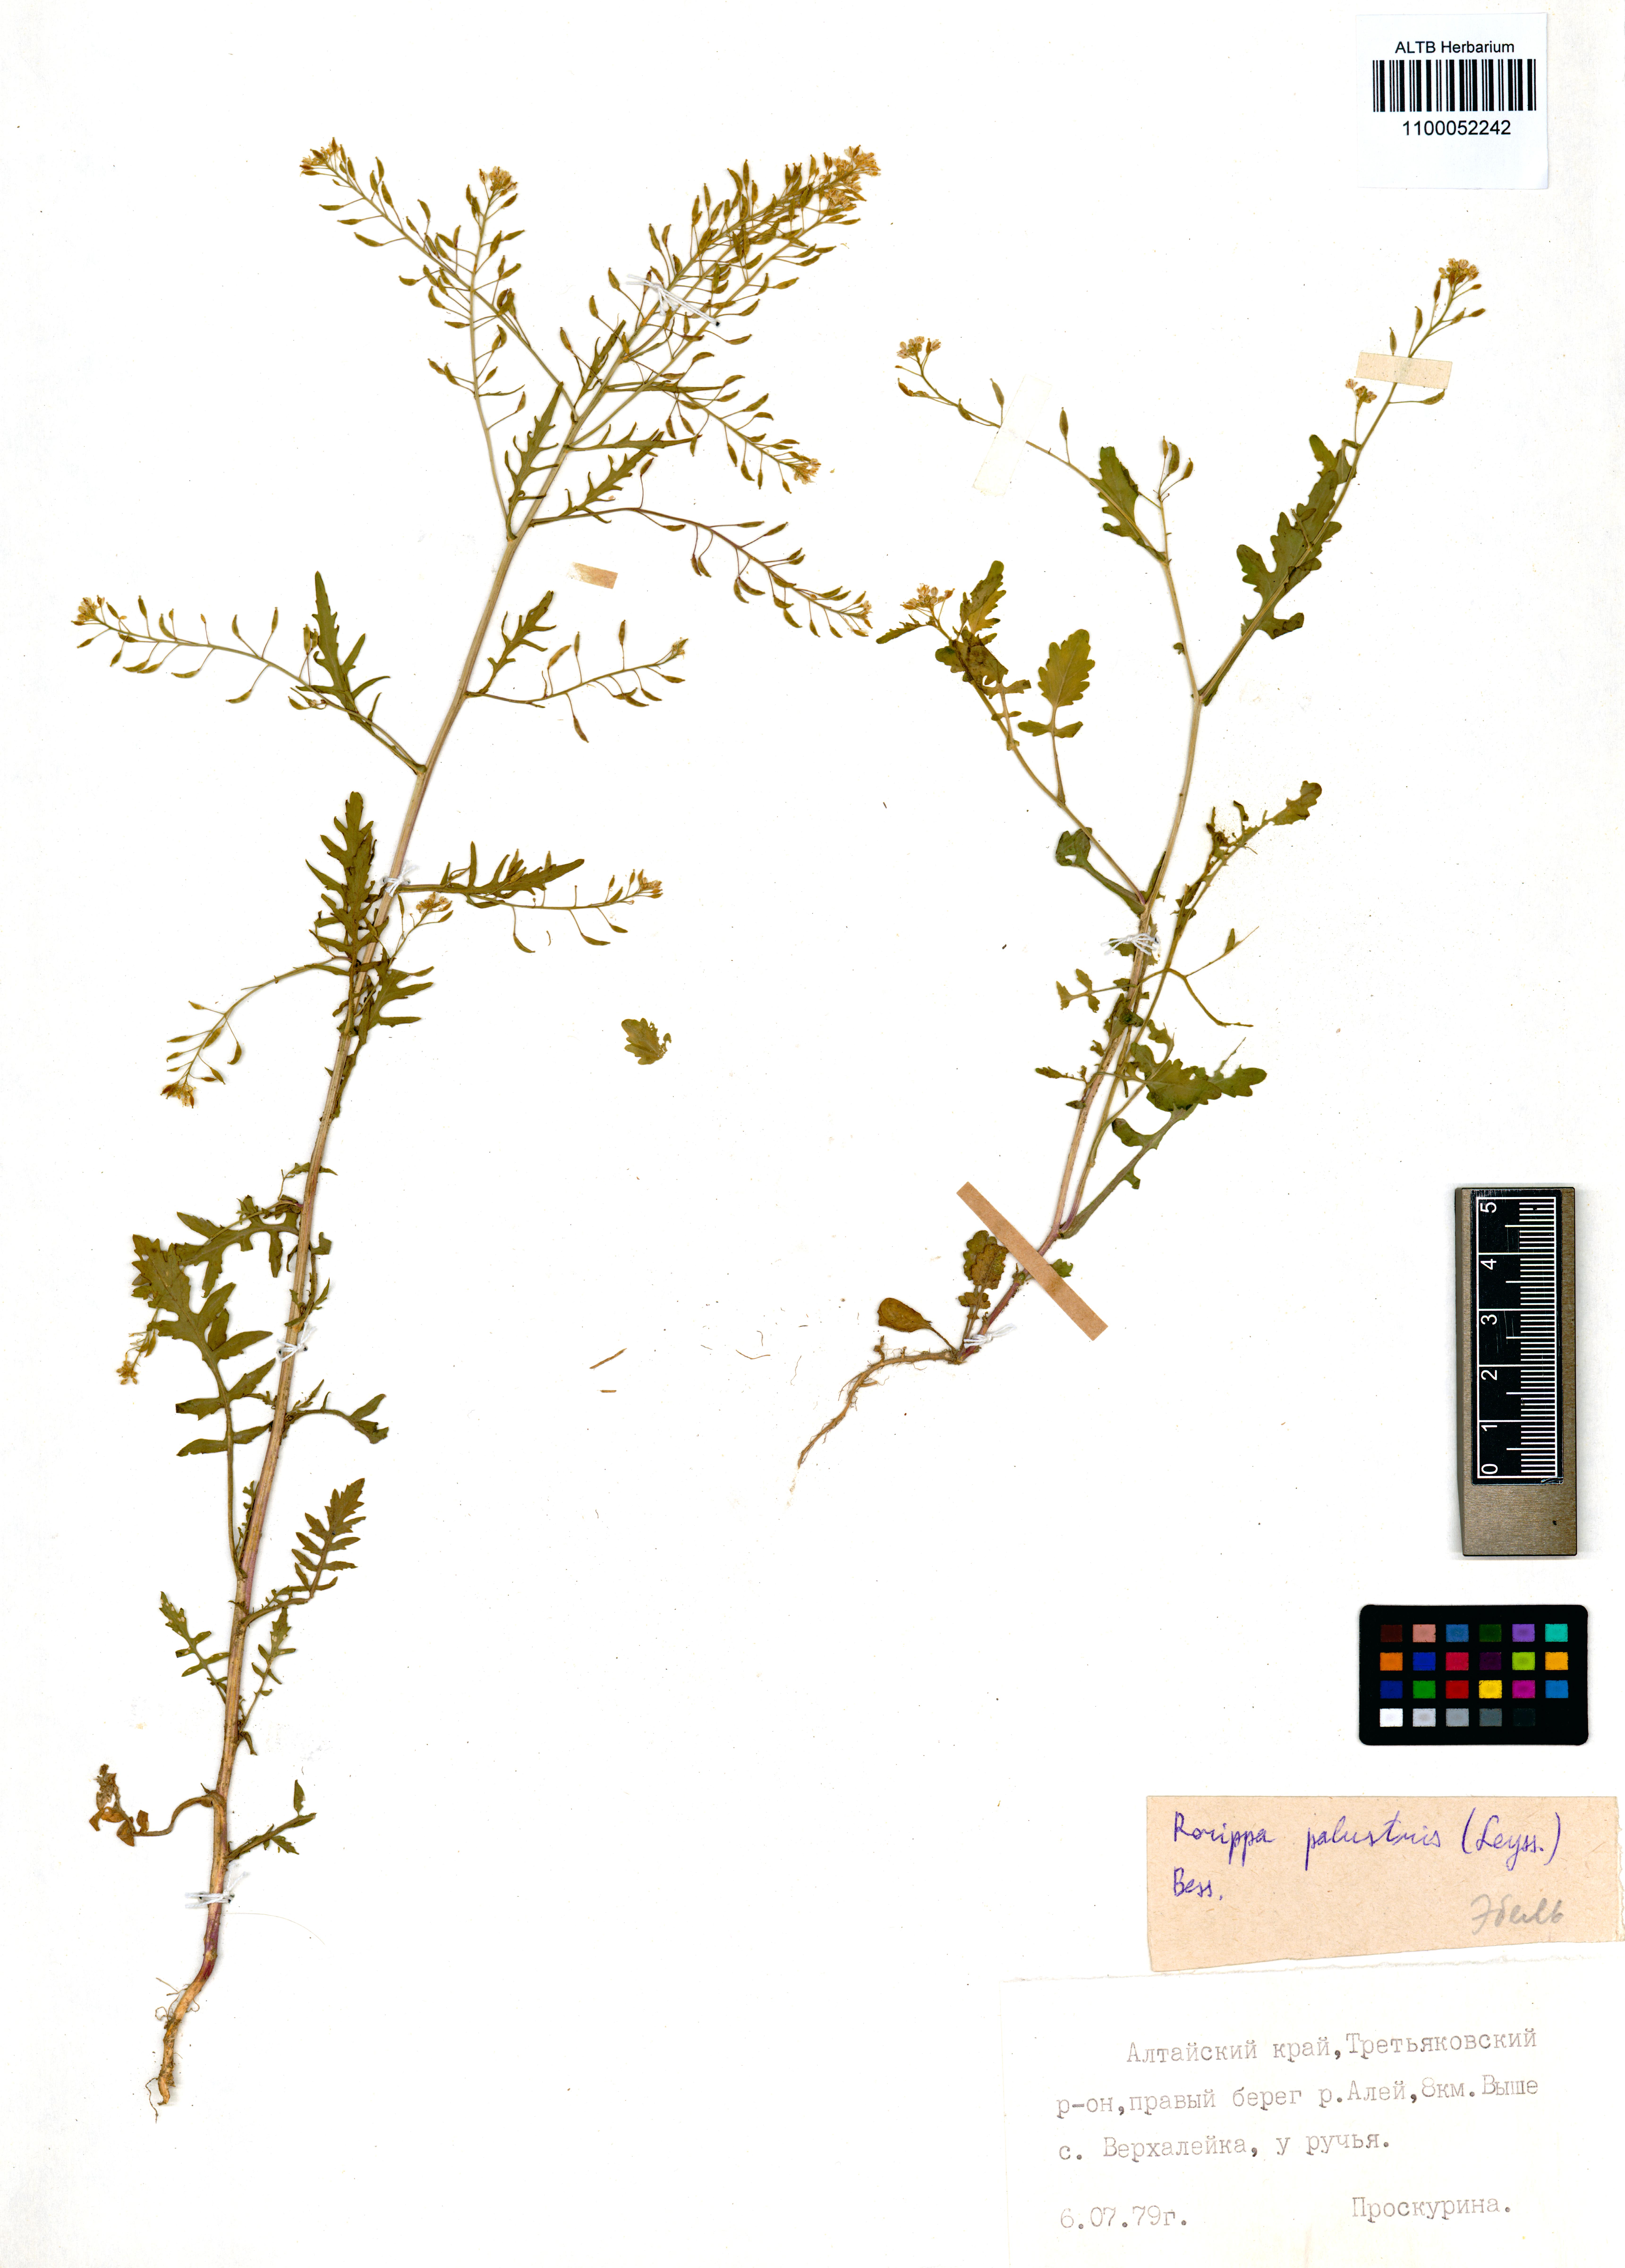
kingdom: Plantae
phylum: Tracheophyta
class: Magnoliopsida
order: Brassicales
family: Brassicaceae
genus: Rorippa
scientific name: Rorippa palustris
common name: Marsh yellow-cress
